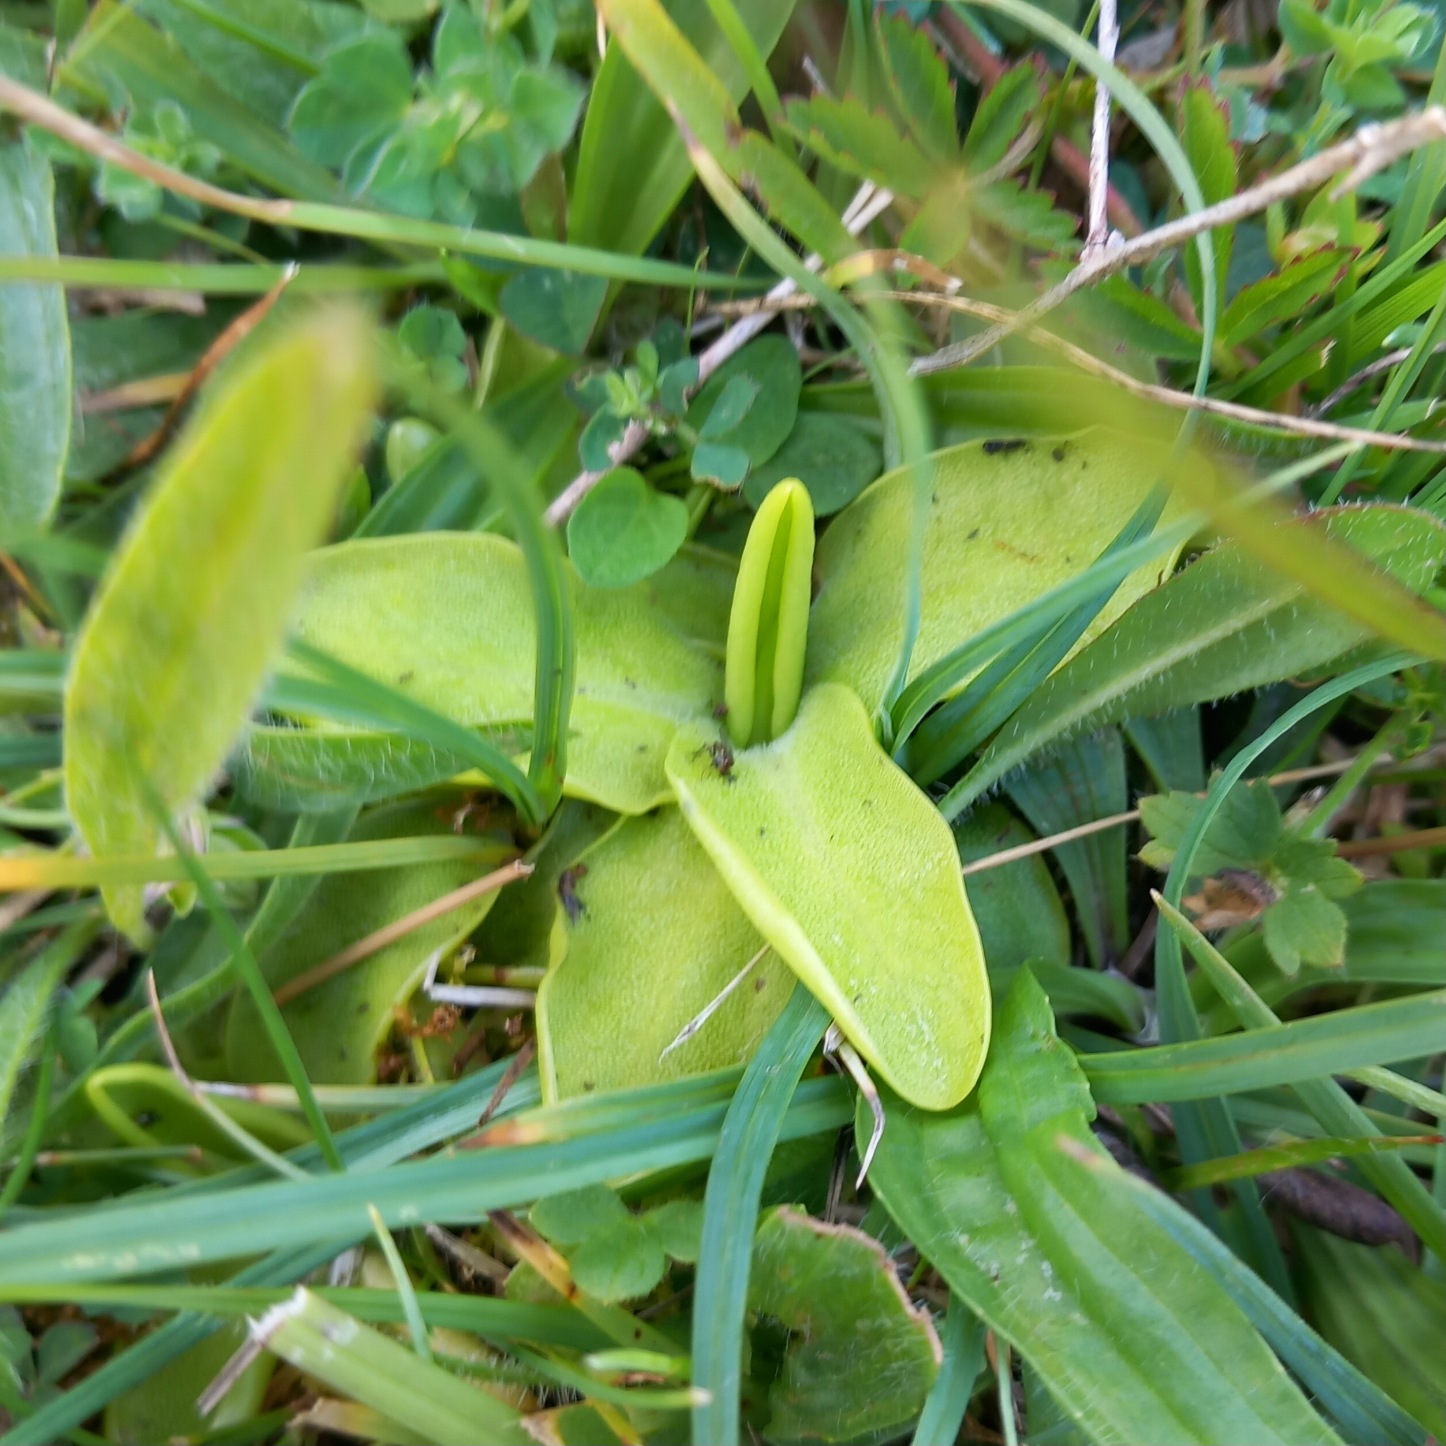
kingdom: Plantae
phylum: Tracheophyta
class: Magnoliopsida
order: Lamiales
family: Lentibulariaceae
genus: Pinguicula
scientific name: Pinguicula vulgaris
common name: Vibefedt
